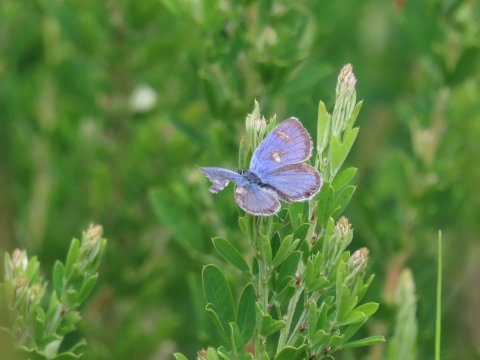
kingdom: Animalia
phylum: Arthropoda
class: Insecta
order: Lepidoptera
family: Lycaenidae
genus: Elkalyce
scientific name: Elkalyce comyntas
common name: Eastern Tailed-Blue
